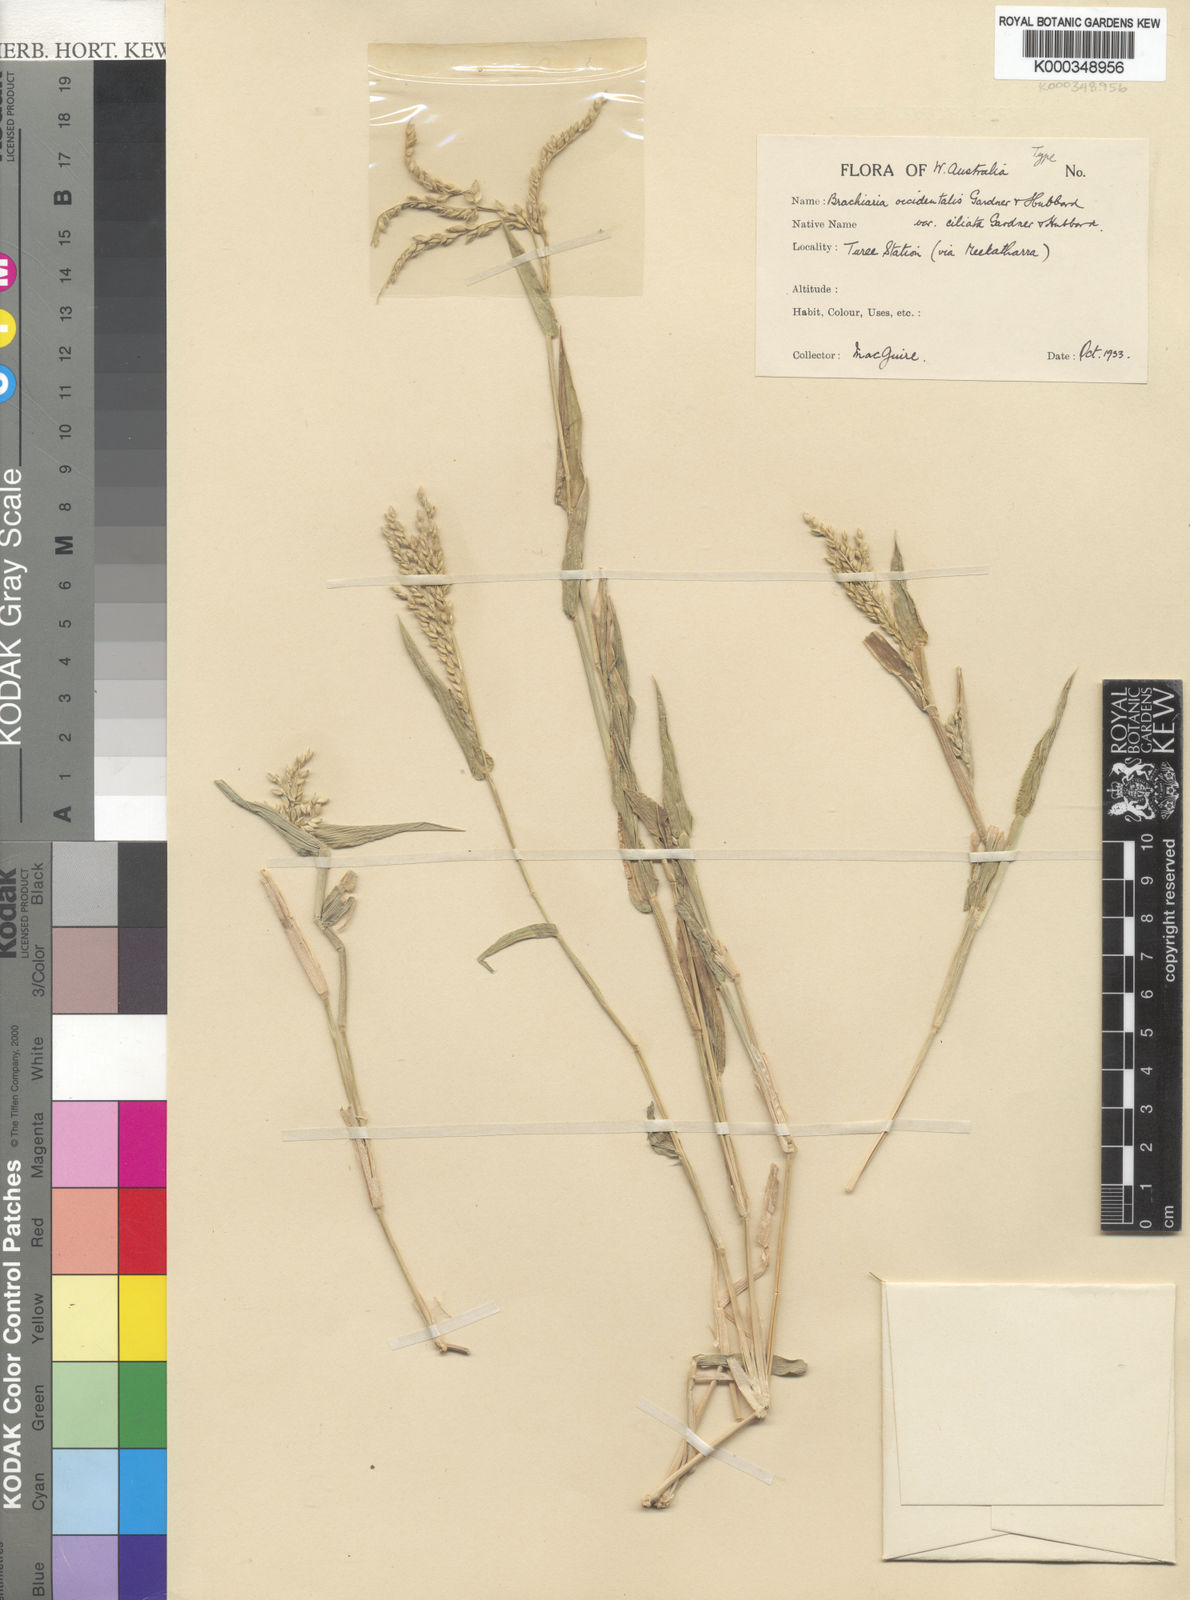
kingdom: Plantae
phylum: Tracheophyta
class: Liliopsida
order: Poales
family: Poaceae
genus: Urochloa
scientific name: Urochloa occidentalis
